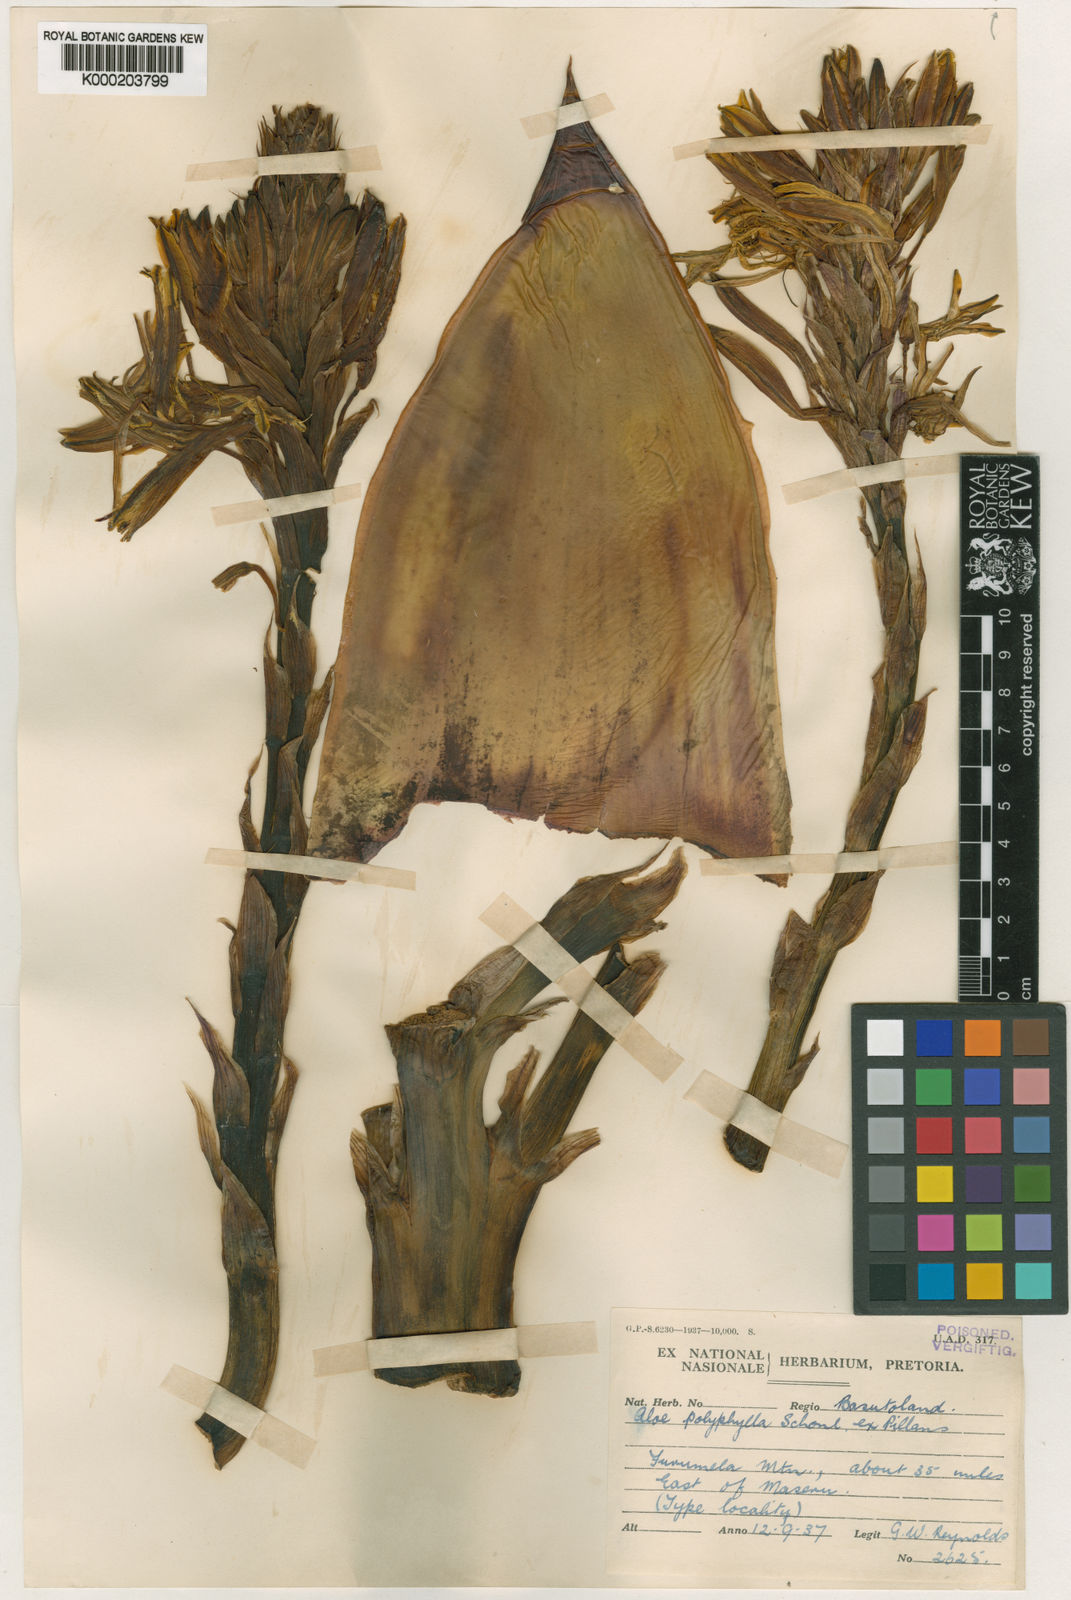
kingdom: Plantae
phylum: Tracheophyta
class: Liliopsida
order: Asparagales
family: Asphodelaceae
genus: Aloe
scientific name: Aloe polyphylla
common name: Basotoland aloe
